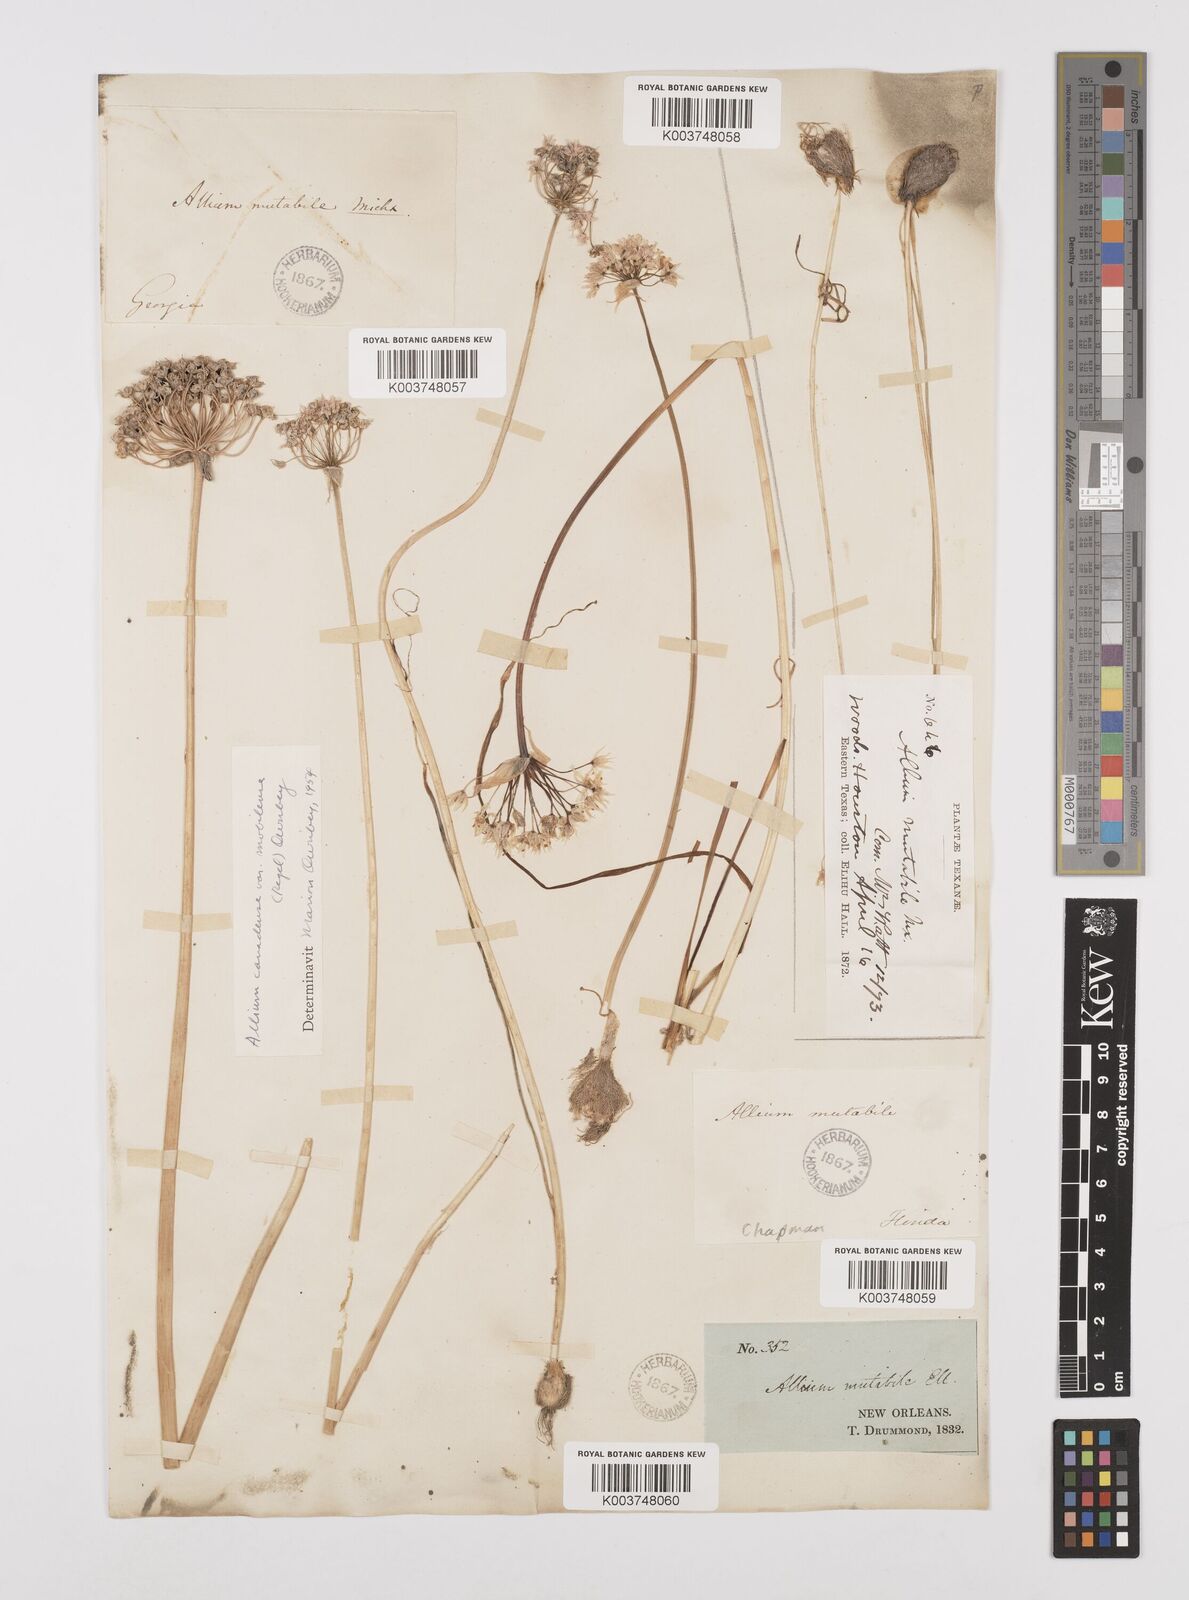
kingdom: Plantae
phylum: Tracheophyta
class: Liliopsida
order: Asparagales
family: Amaryllidaceae
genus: Allium
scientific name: Allium canadense
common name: Meadow garlic
